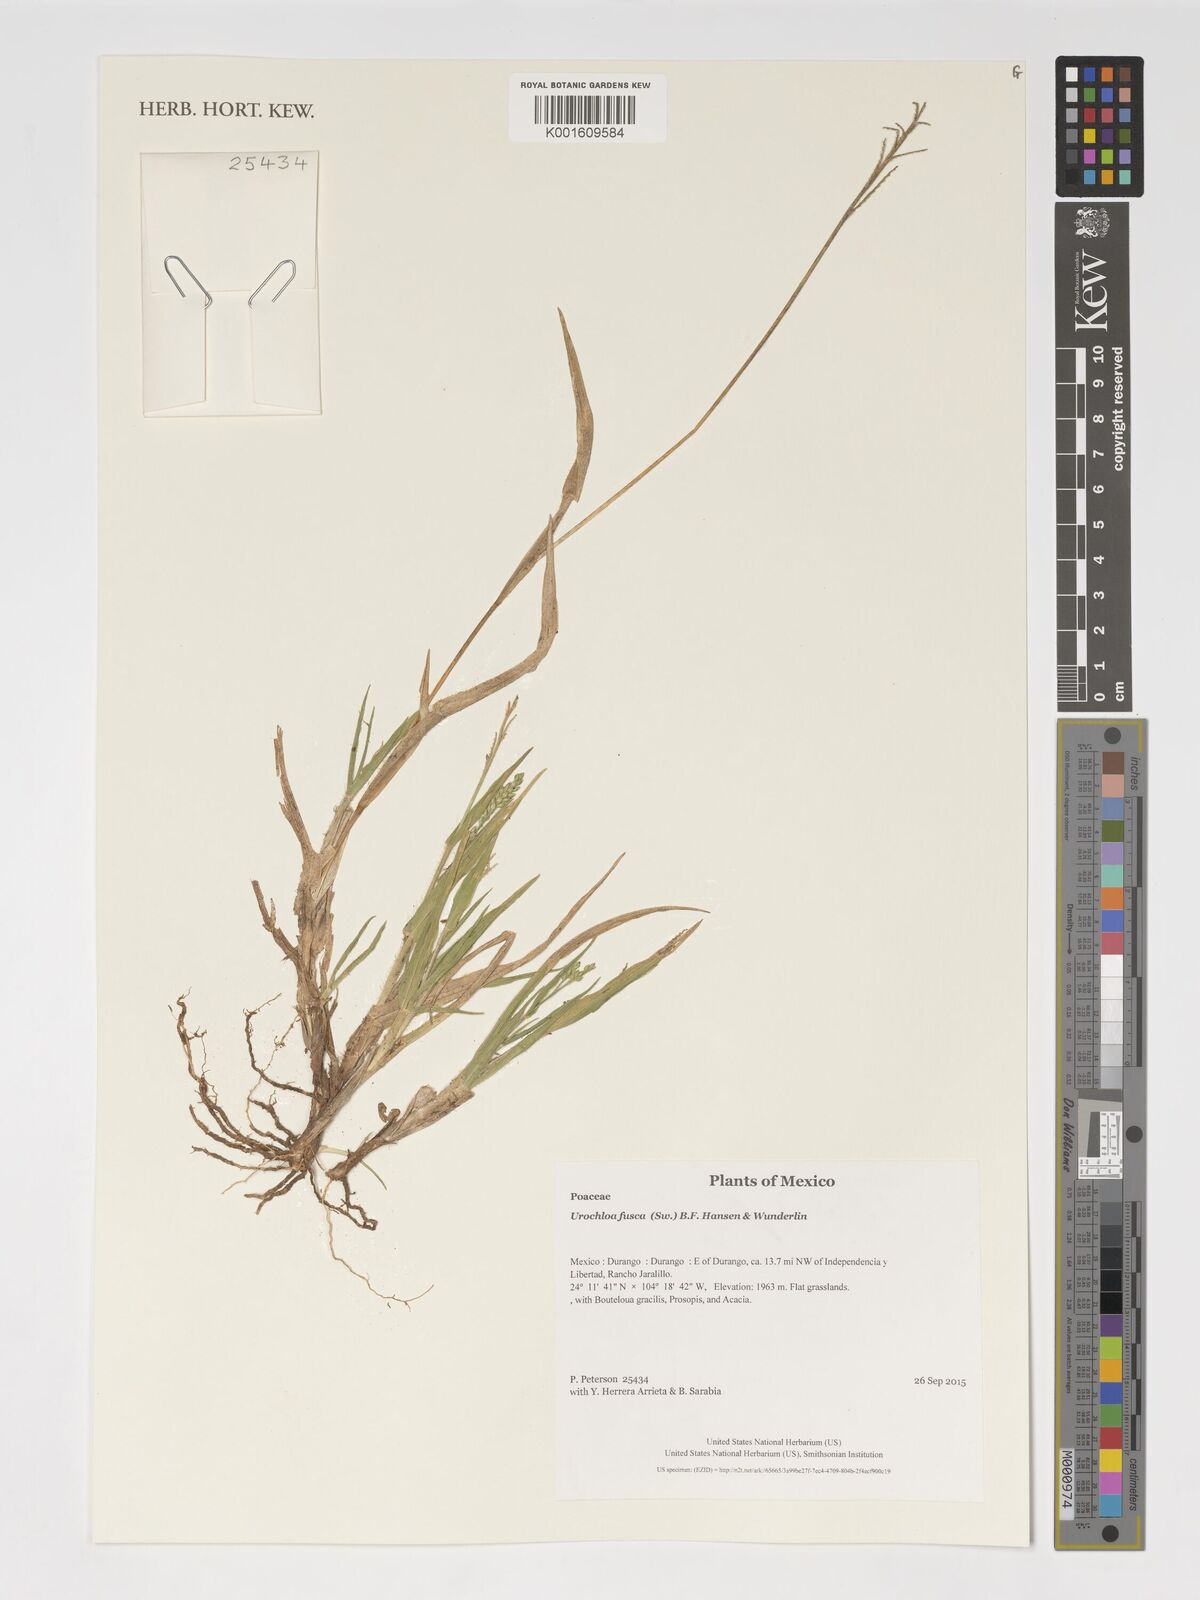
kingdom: Plantae
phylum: Tracheophyta
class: Liliopsida
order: Poales
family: Poaceae
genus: Urochloa
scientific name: Urochloa fusca
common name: Browntop signal grass
